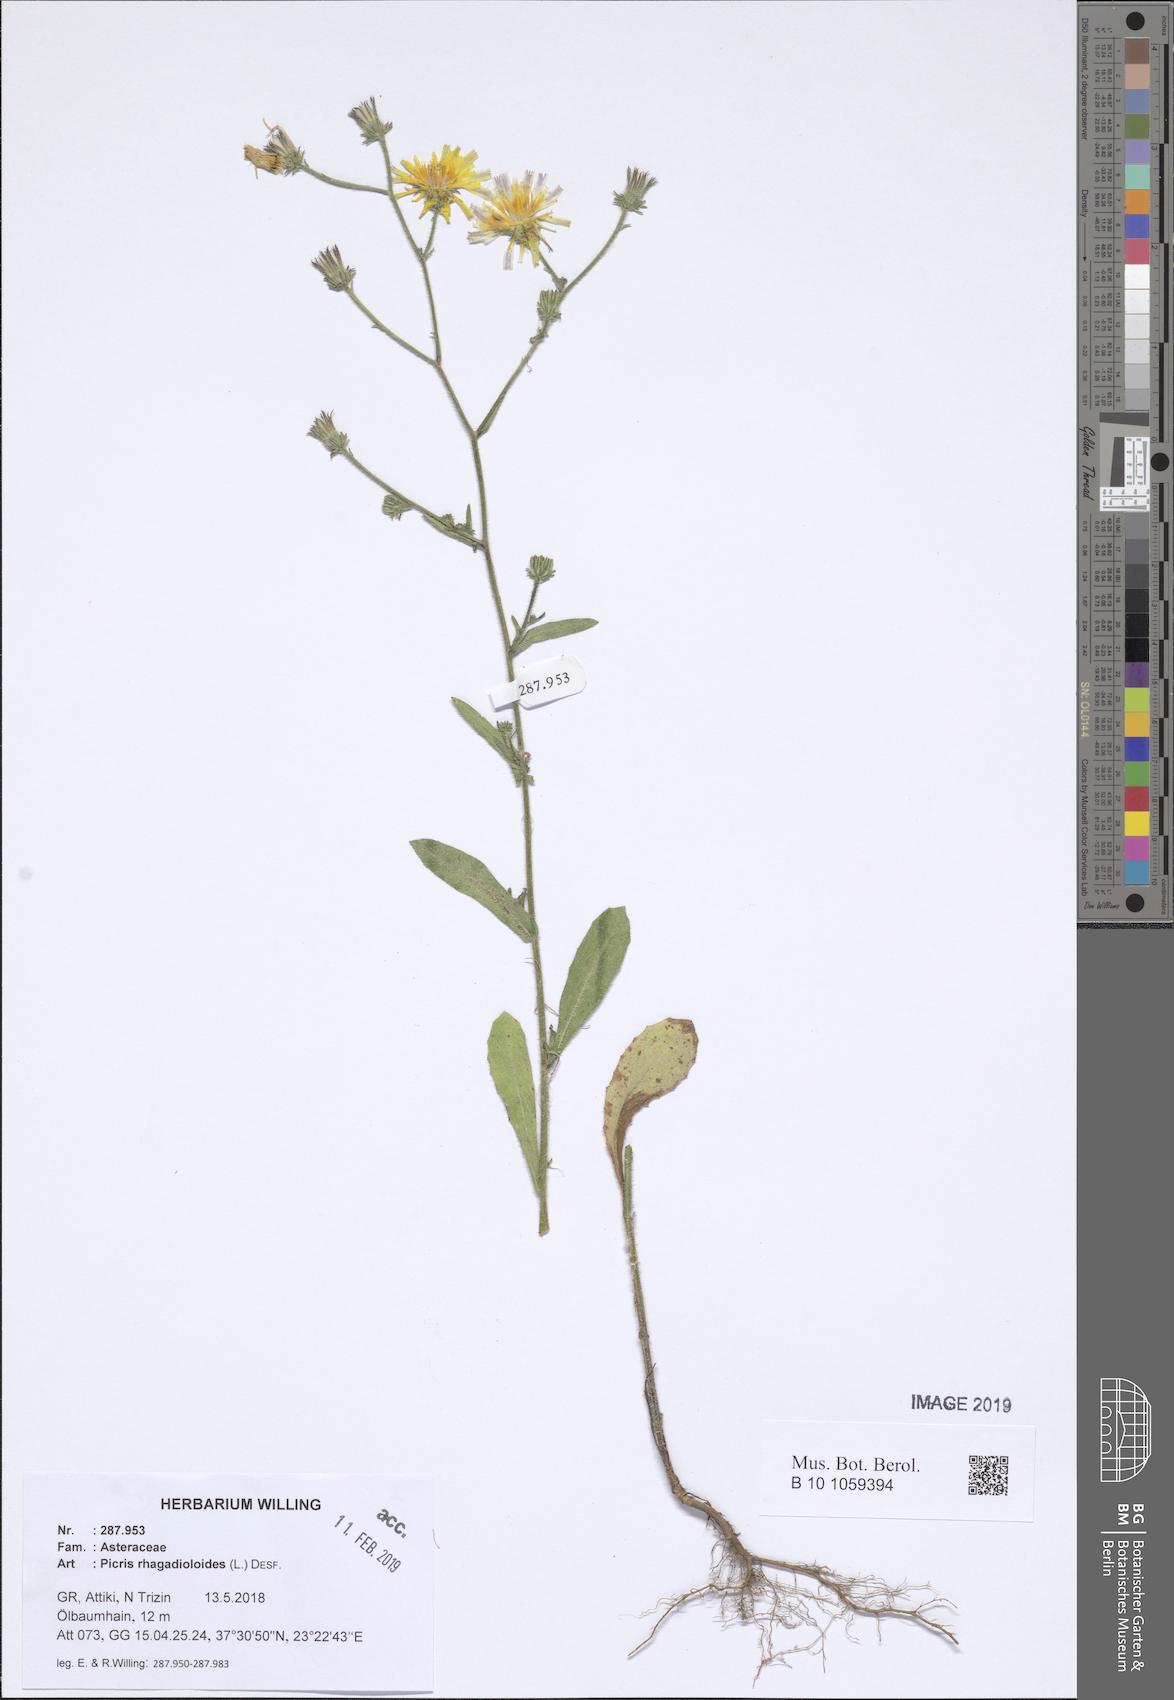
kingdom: Plantae
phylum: Tracheophyta
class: Magnoliopsida
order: Asterales
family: Asteraceae
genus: Picris
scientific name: Picris rhagadioloides
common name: Oxtongue
